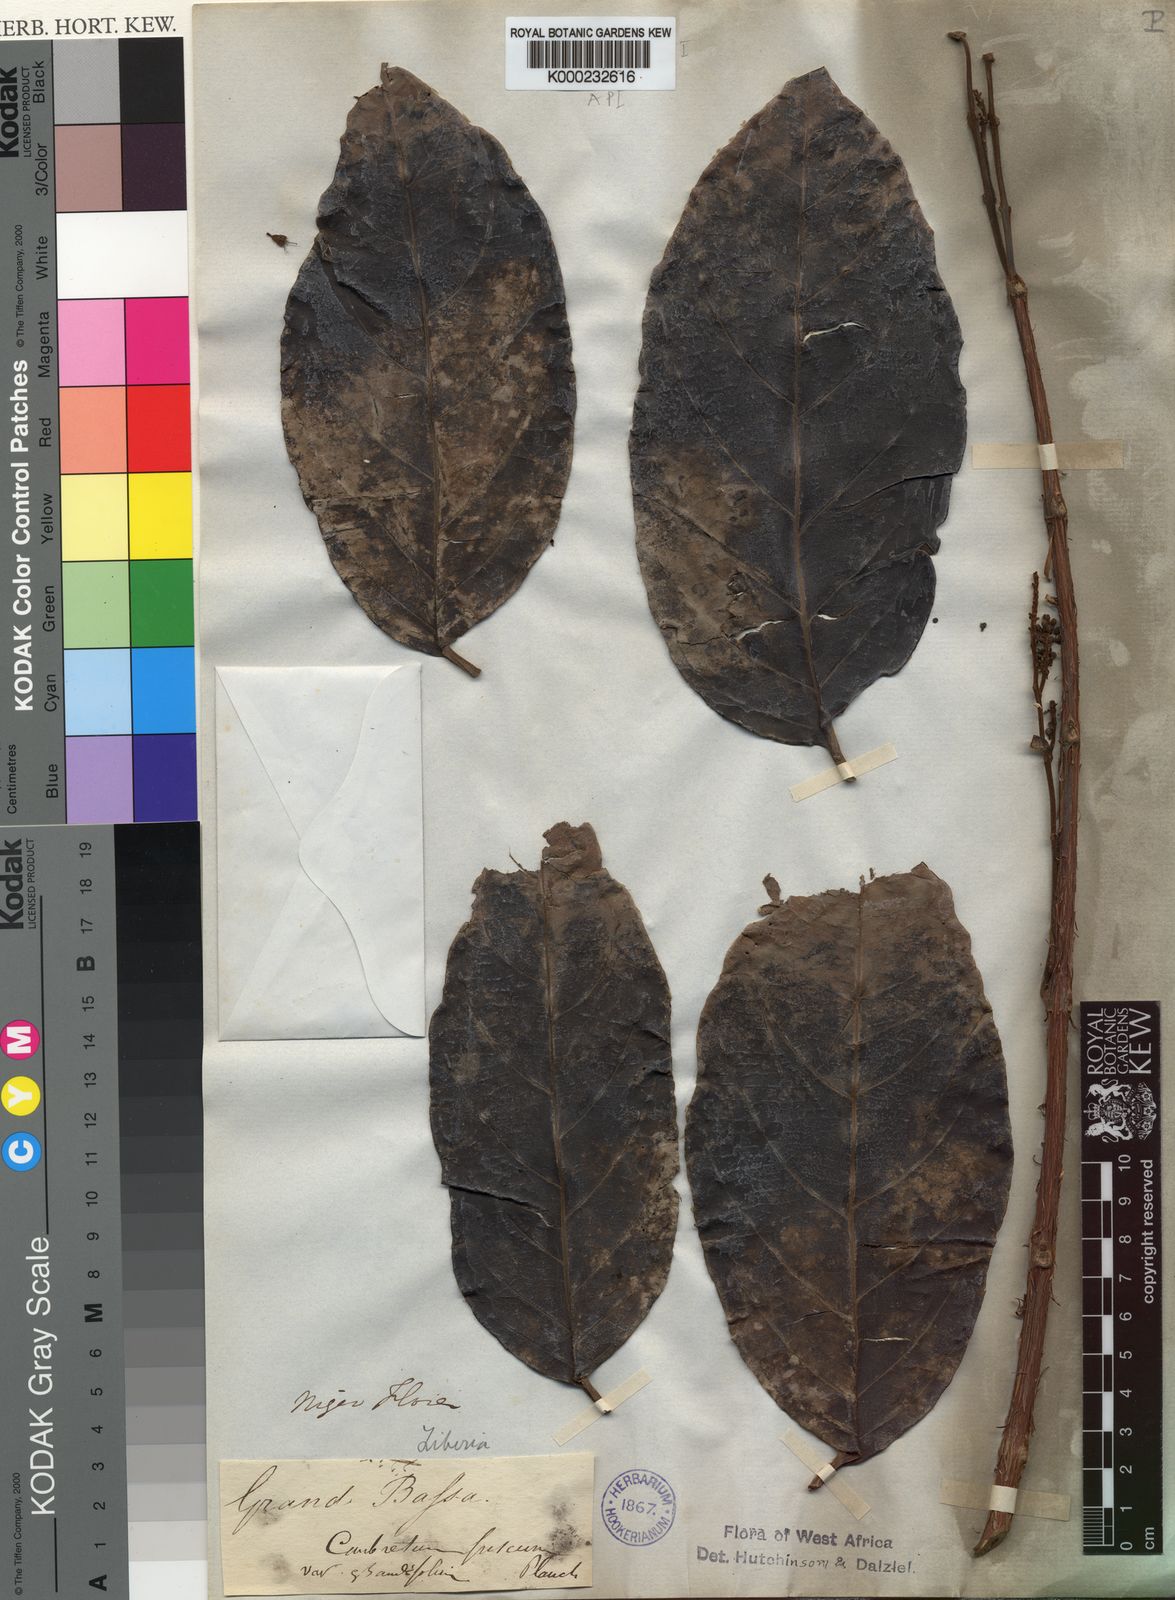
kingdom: Plantae
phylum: Tracheophyta
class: Magnoliopsida
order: Myrtales
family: Combretaceae
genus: Combretum
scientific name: Combretum fuscum
